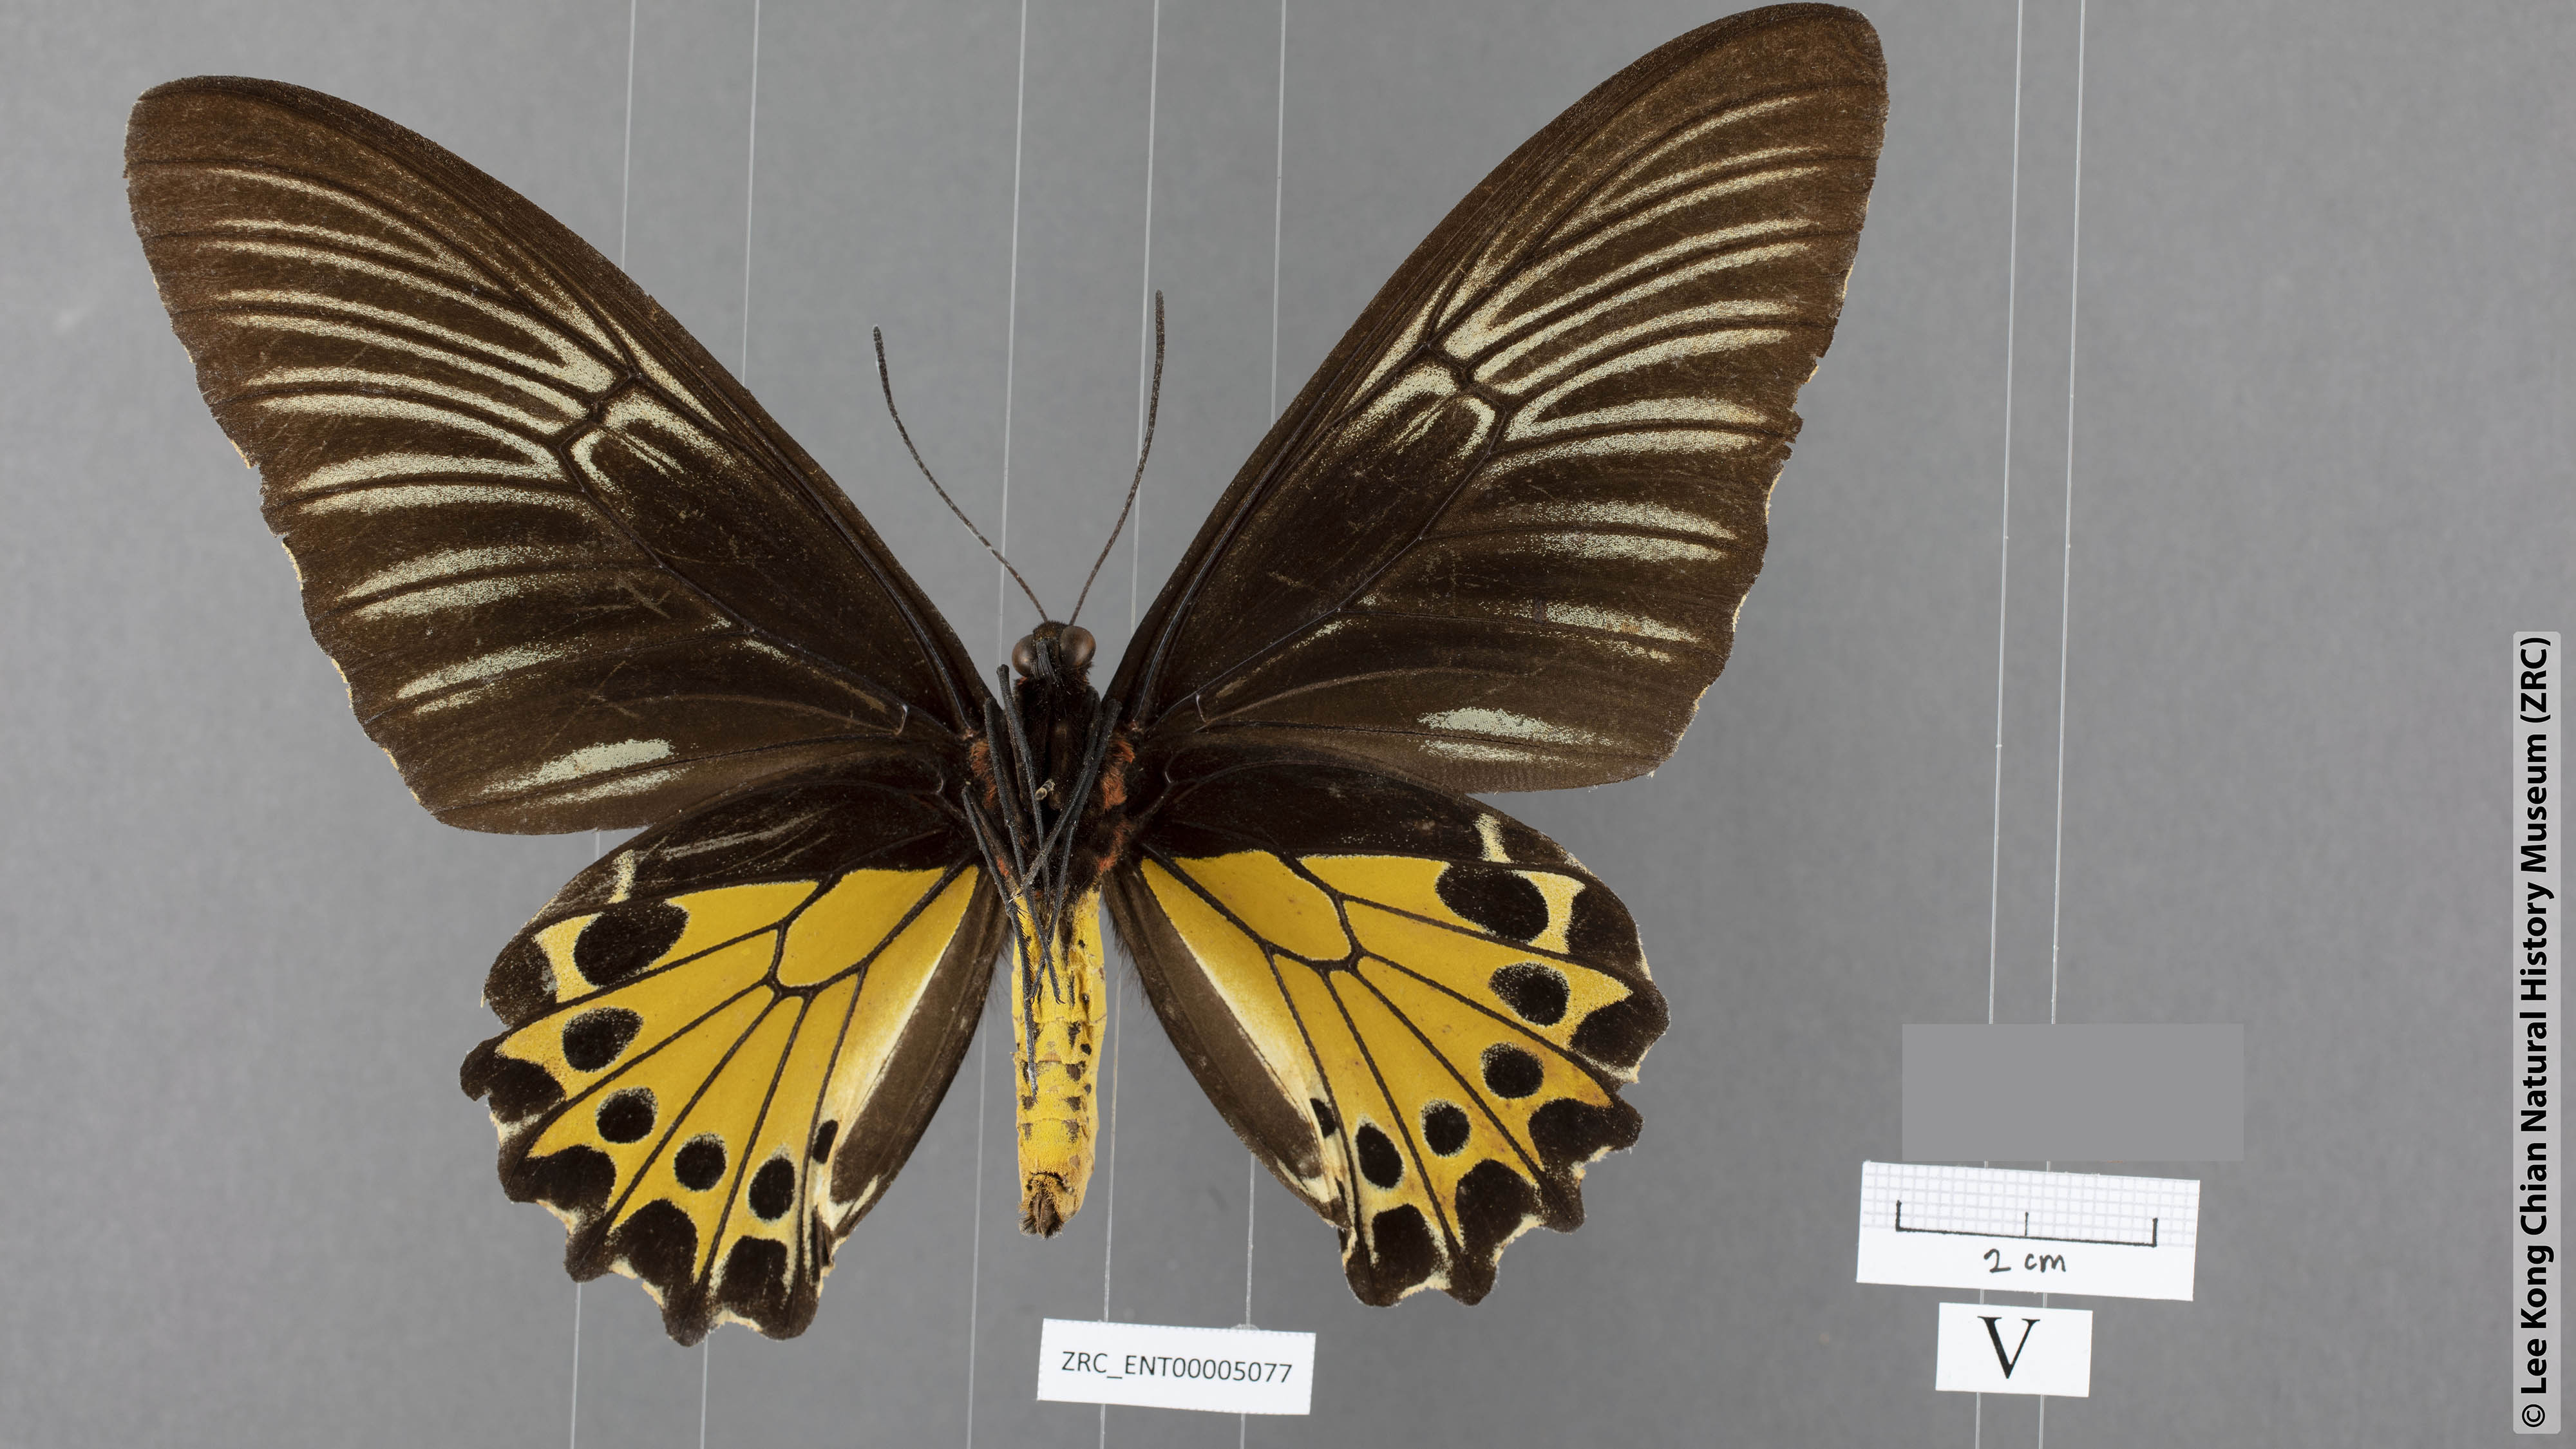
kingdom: Animalia
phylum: Arthropoda
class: Insecta
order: Lepidoptera
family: Papilionidae
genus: Troides
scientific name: Troides helena
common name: Common birdwing
